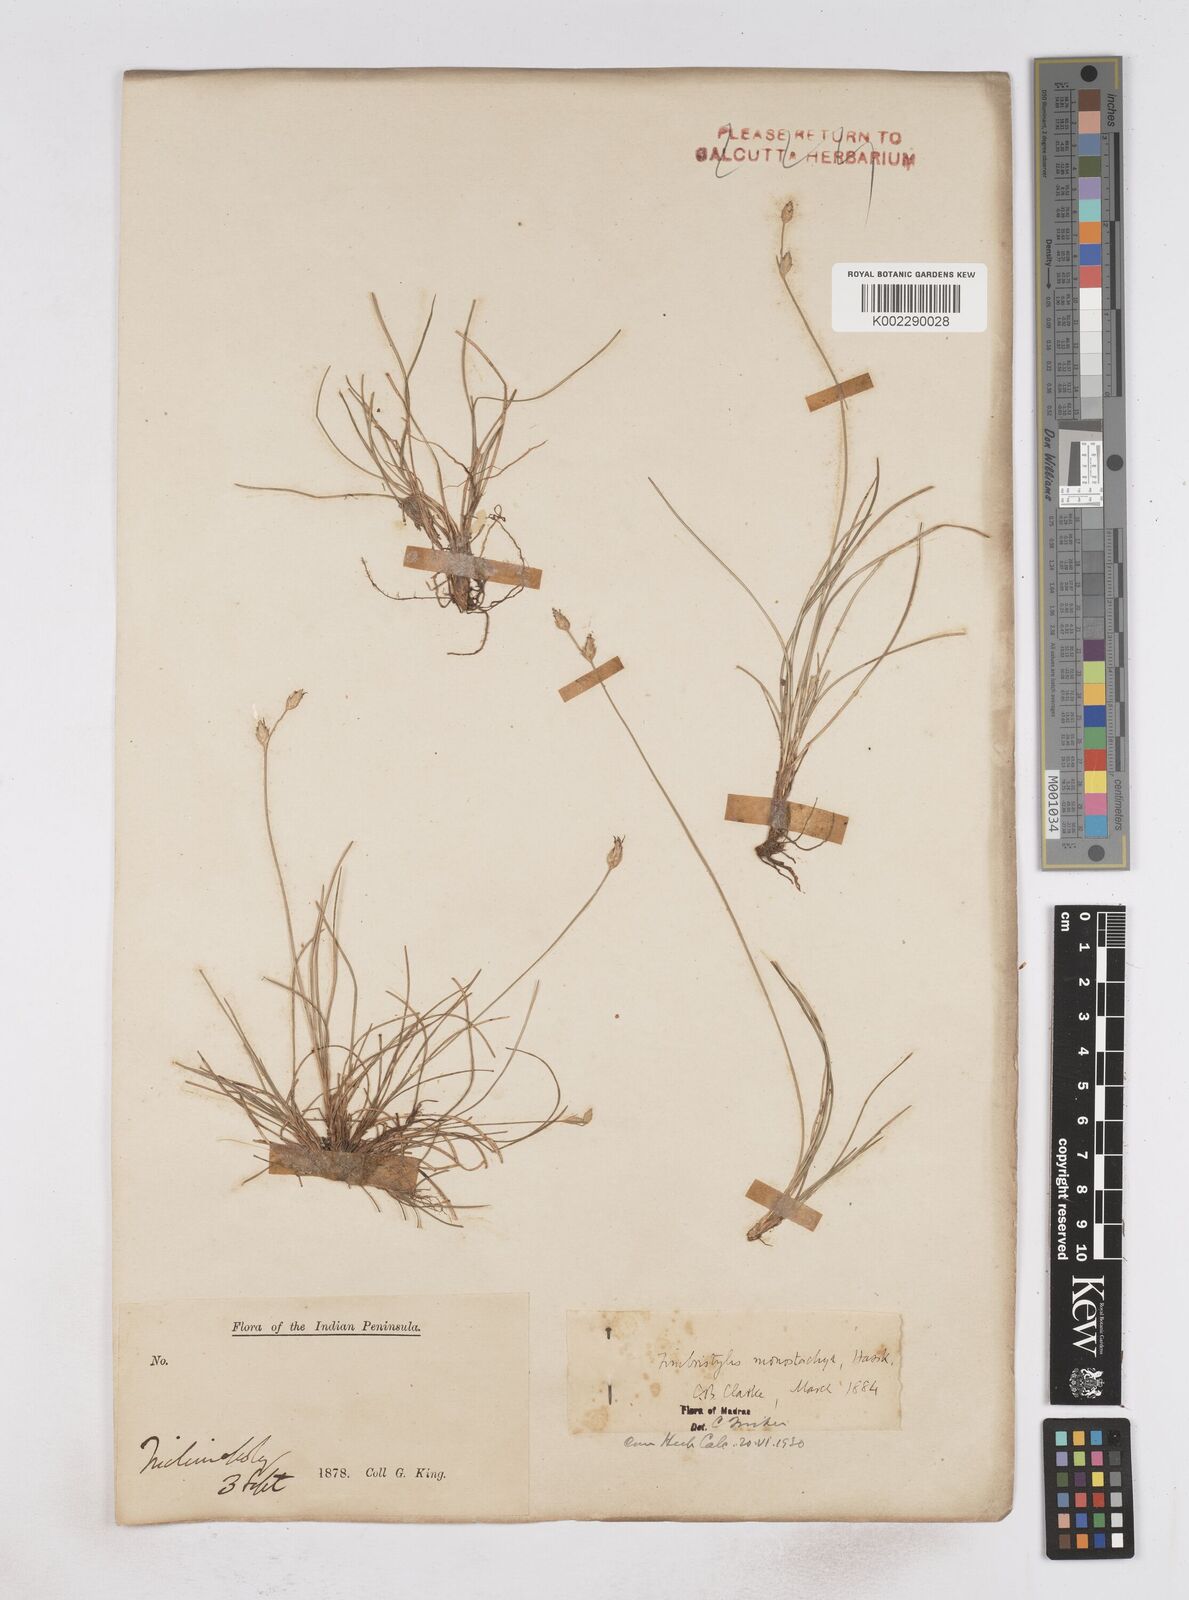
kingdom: Plantae
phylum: Tracheophyta
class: Liliopsida
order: Poales
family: Cyperaceae
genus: Abildgaardia
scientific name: Abildgaardia ovata
